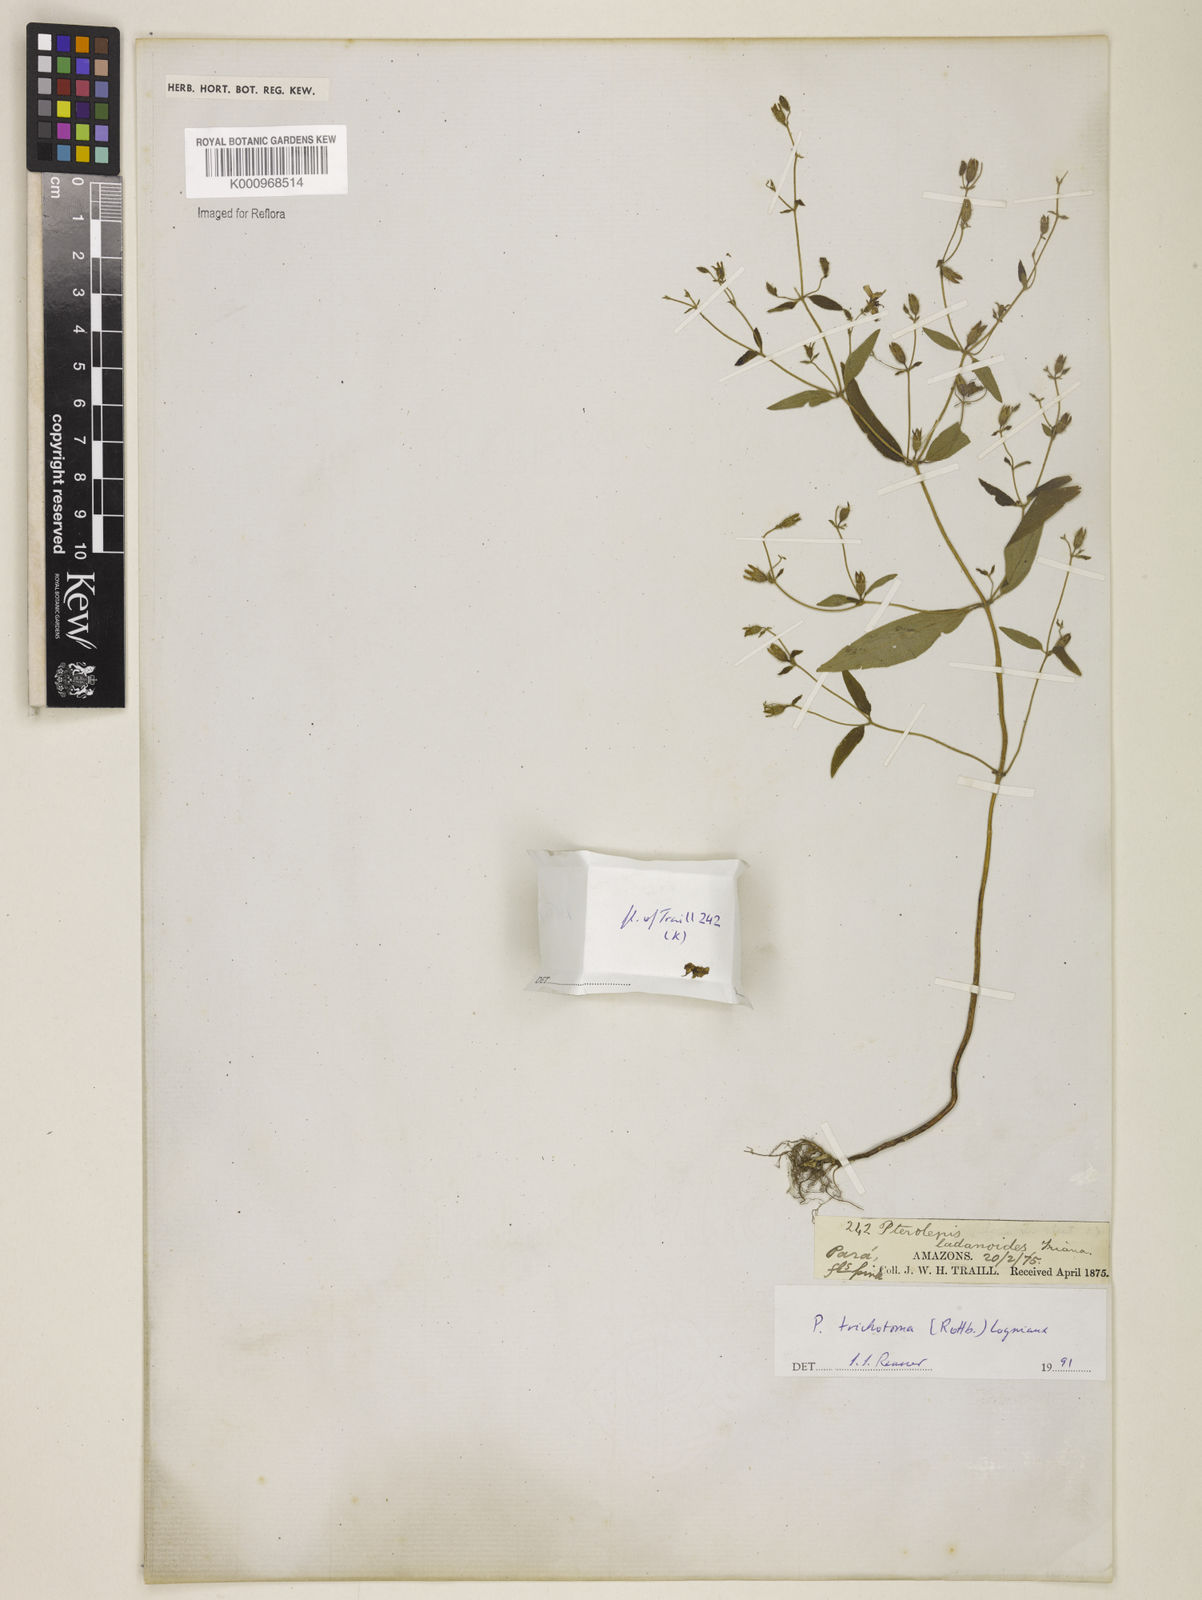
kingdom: Plantae
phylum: Tracheophyta
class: Magnoliopsida
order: Myrtales
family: Melastomataceae
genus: Pterolepis
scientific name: Pterolepis trichotoma
